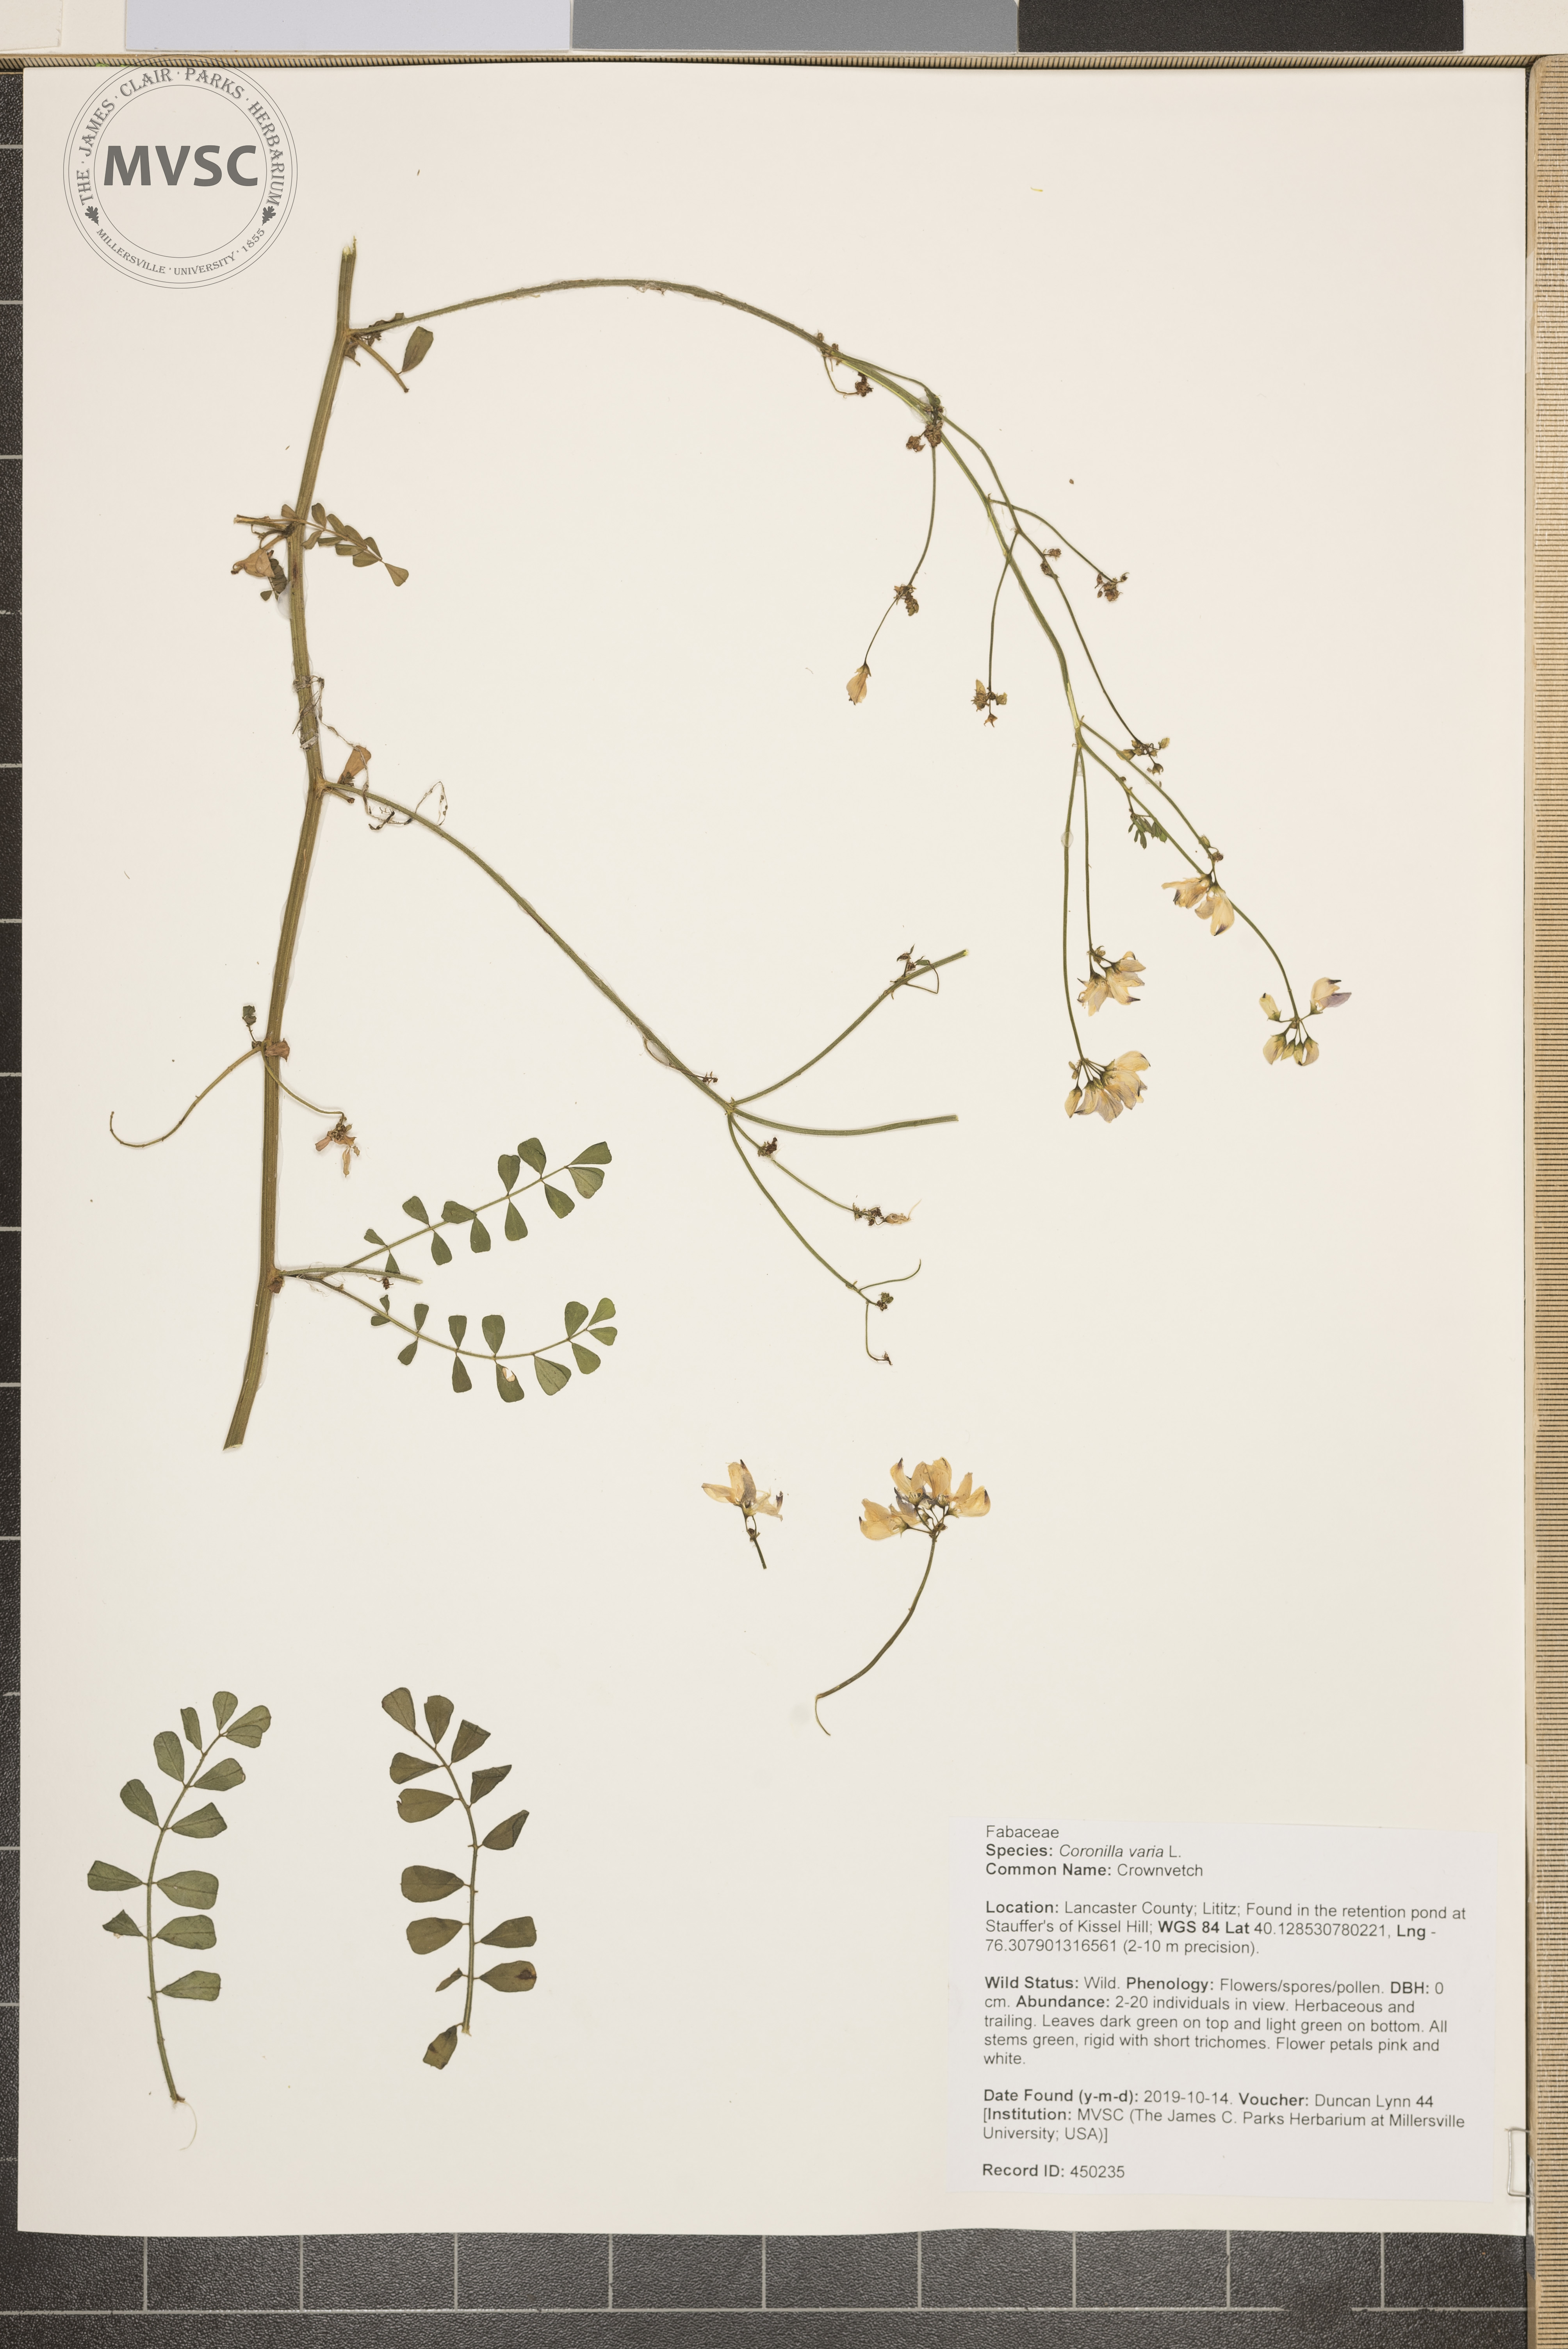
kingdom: Plantae
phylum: Tracheophyta
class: Magnoliopsida
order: Fabales
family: Fabaceae
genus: Coronilla
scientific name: Coronilla varia
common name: Crownvetch
